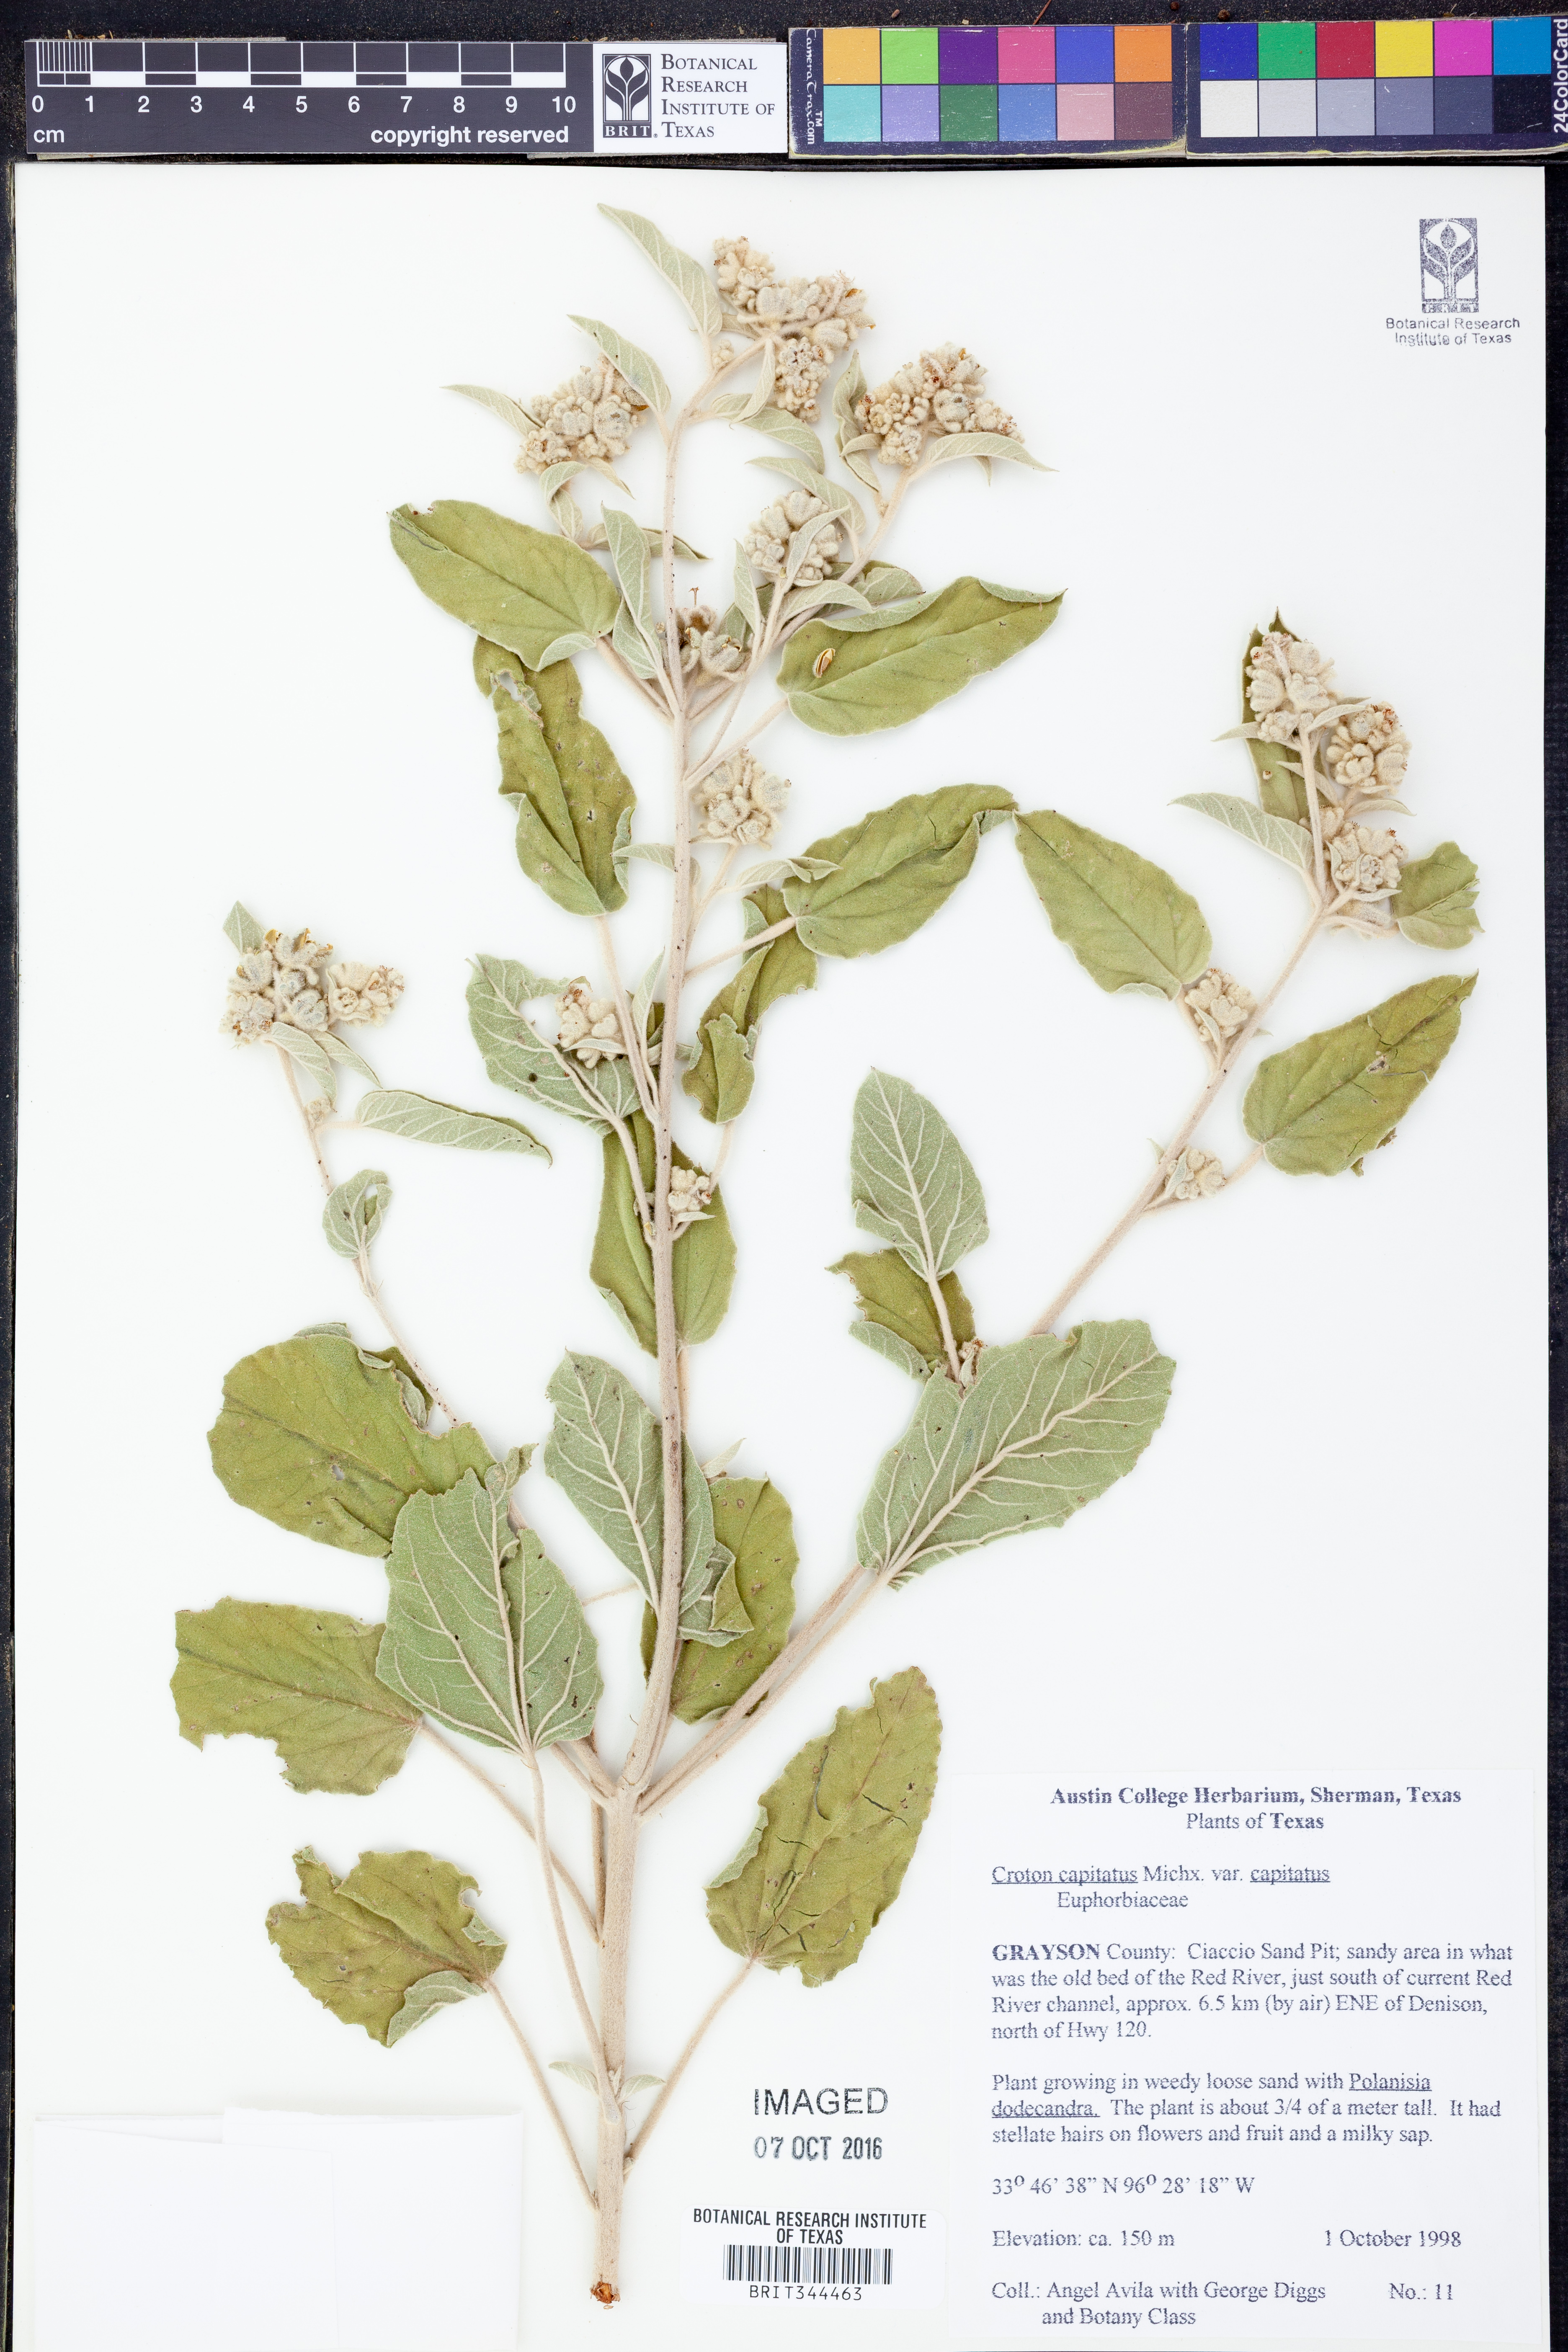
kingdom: Plantae
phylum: Tracheophyta
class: Magnoliopsida
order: Malpighiales
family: Euphorbiaceae
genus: Croton
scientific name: Croton capitatus
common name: Woolly croton
